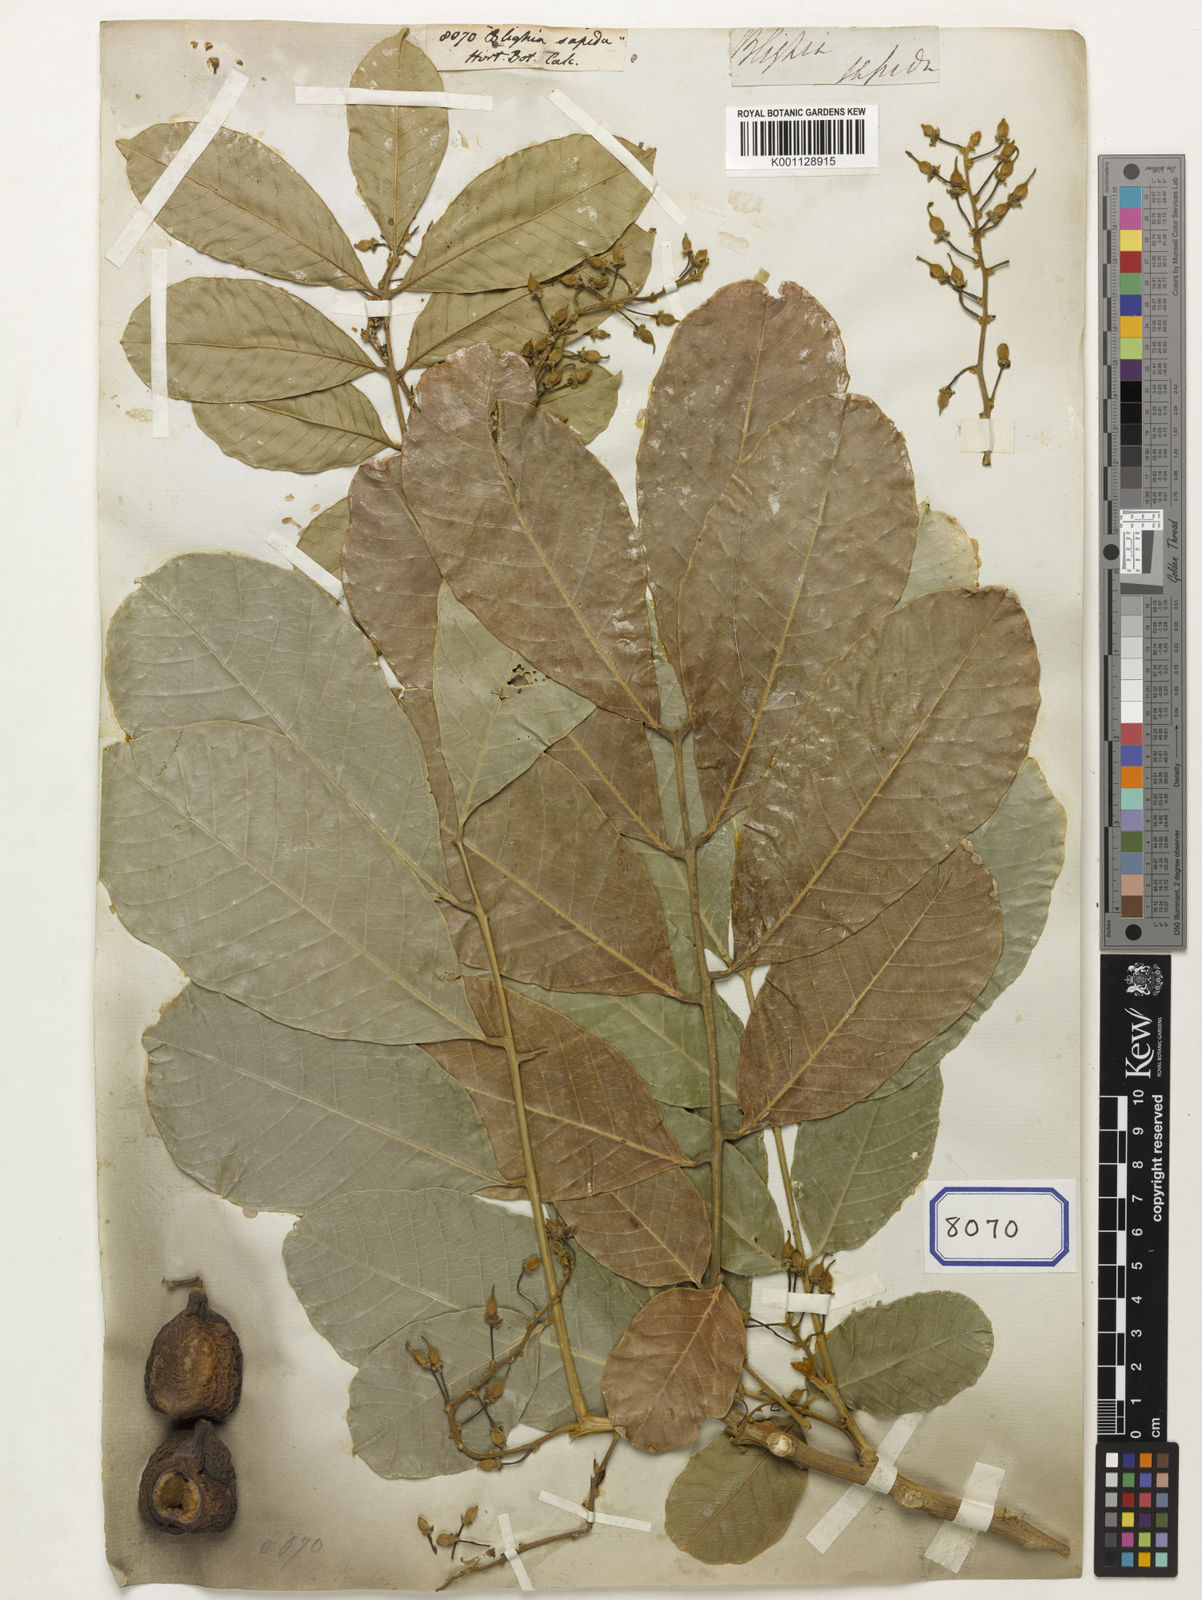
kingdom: Plantae
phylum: Tracheophyta
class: Magnoliopsida
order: Sapindales
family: Sapindaceae
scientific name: Sapindaceae
